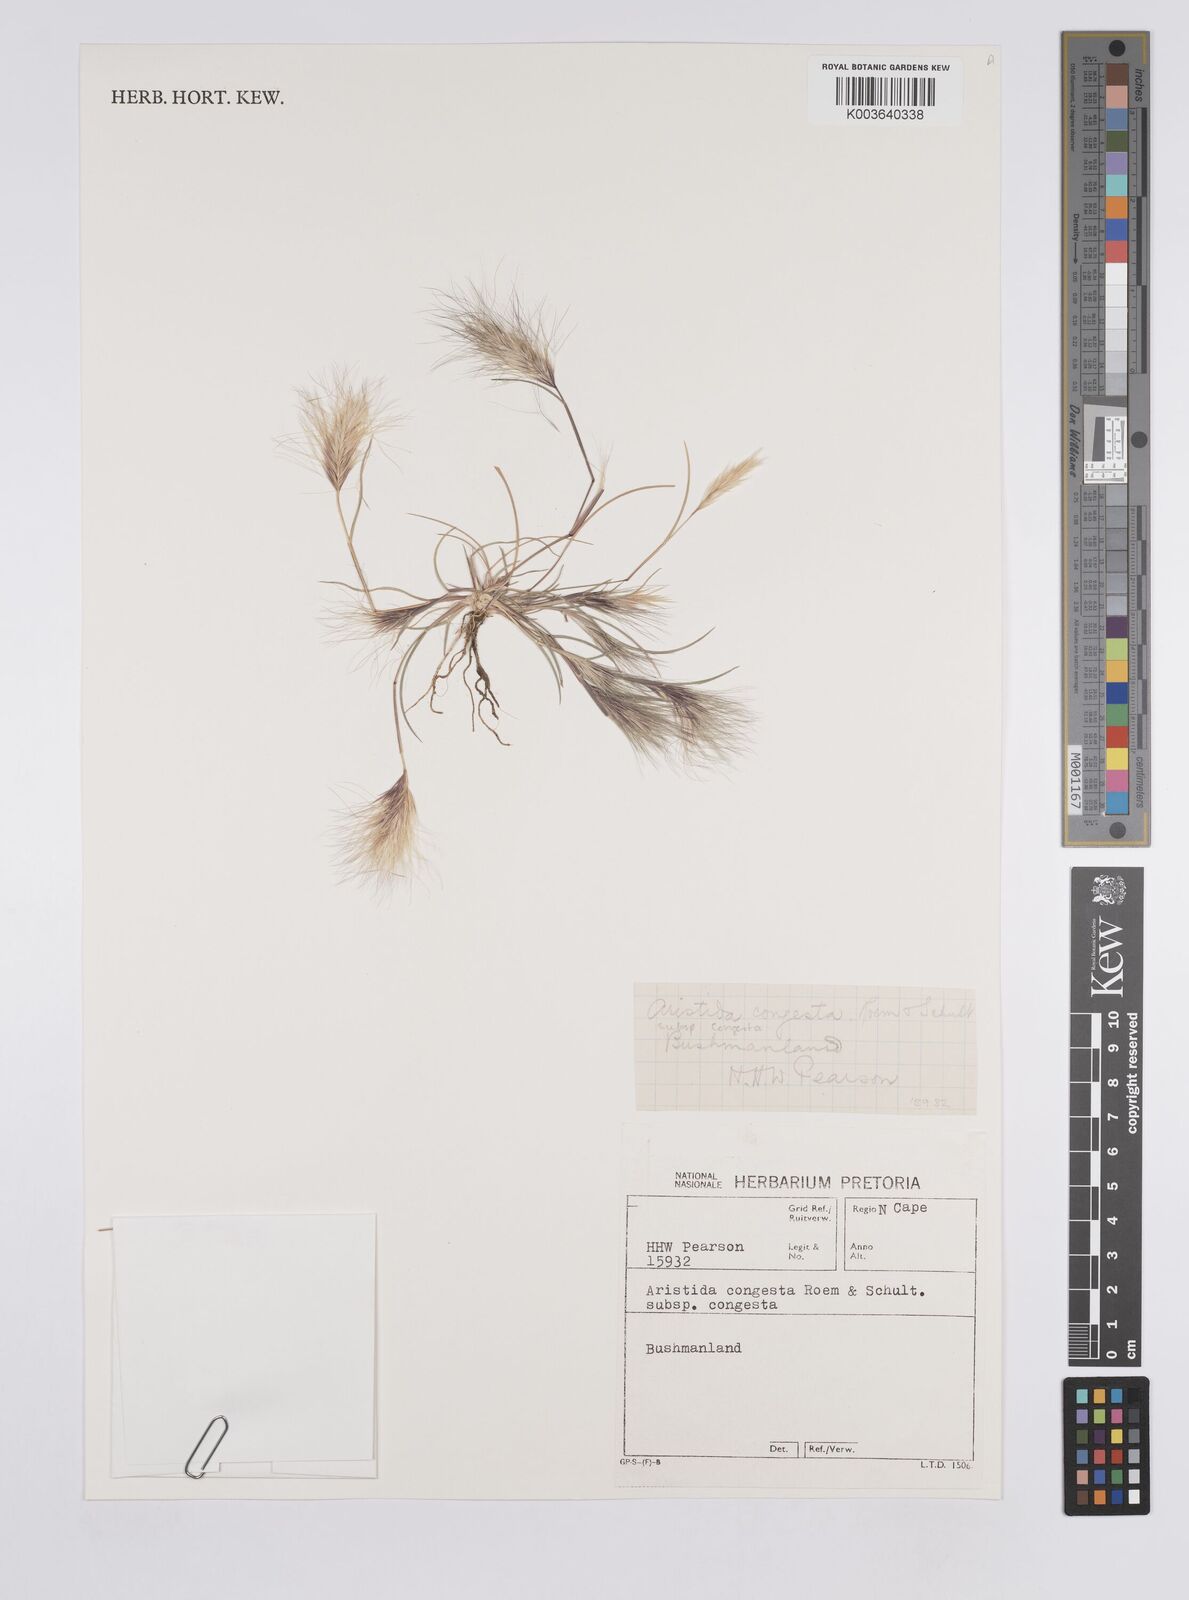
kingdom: Plantae
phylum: Tracheophyta
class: Liliopsida
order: Poales
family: Poaceae
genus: Aristida
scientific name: Aristida congesta
